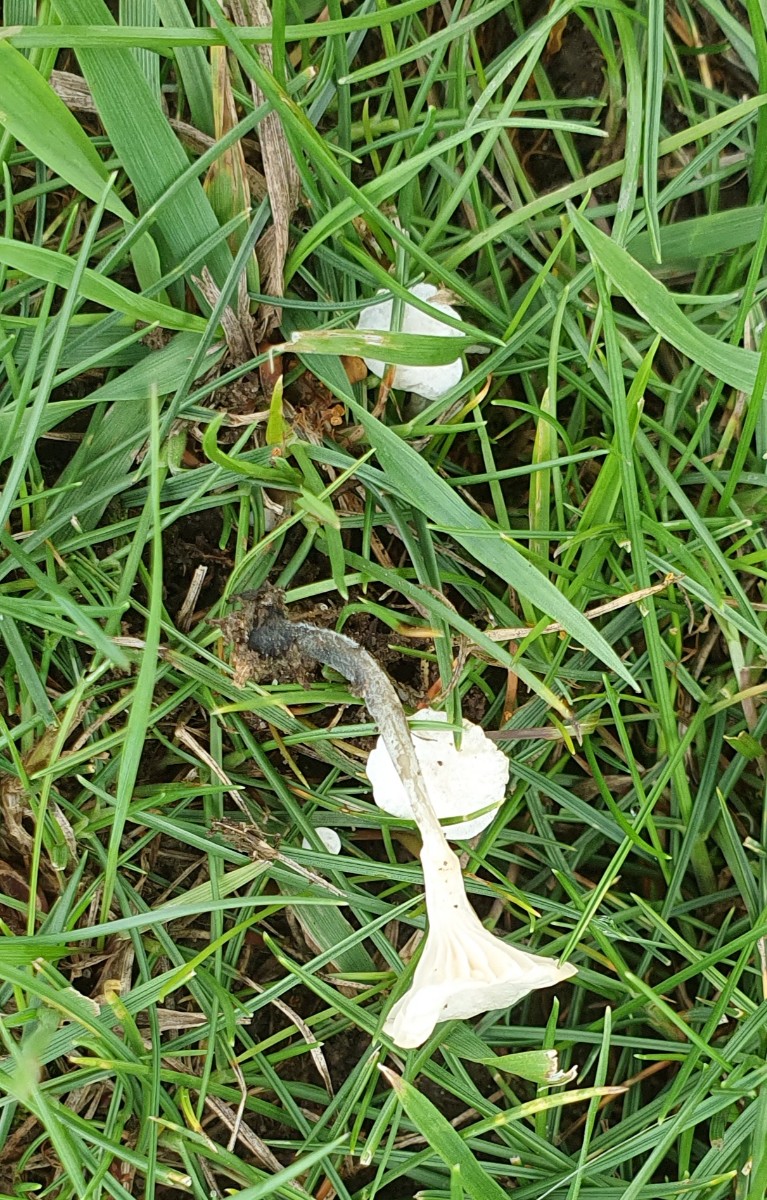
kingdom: Fungi
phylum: Basidiomycota
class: Agaricomycetes
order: Agaricales
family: Omphalotaceae
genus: Marasmiellus
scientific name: Marasmiellus tricolor
